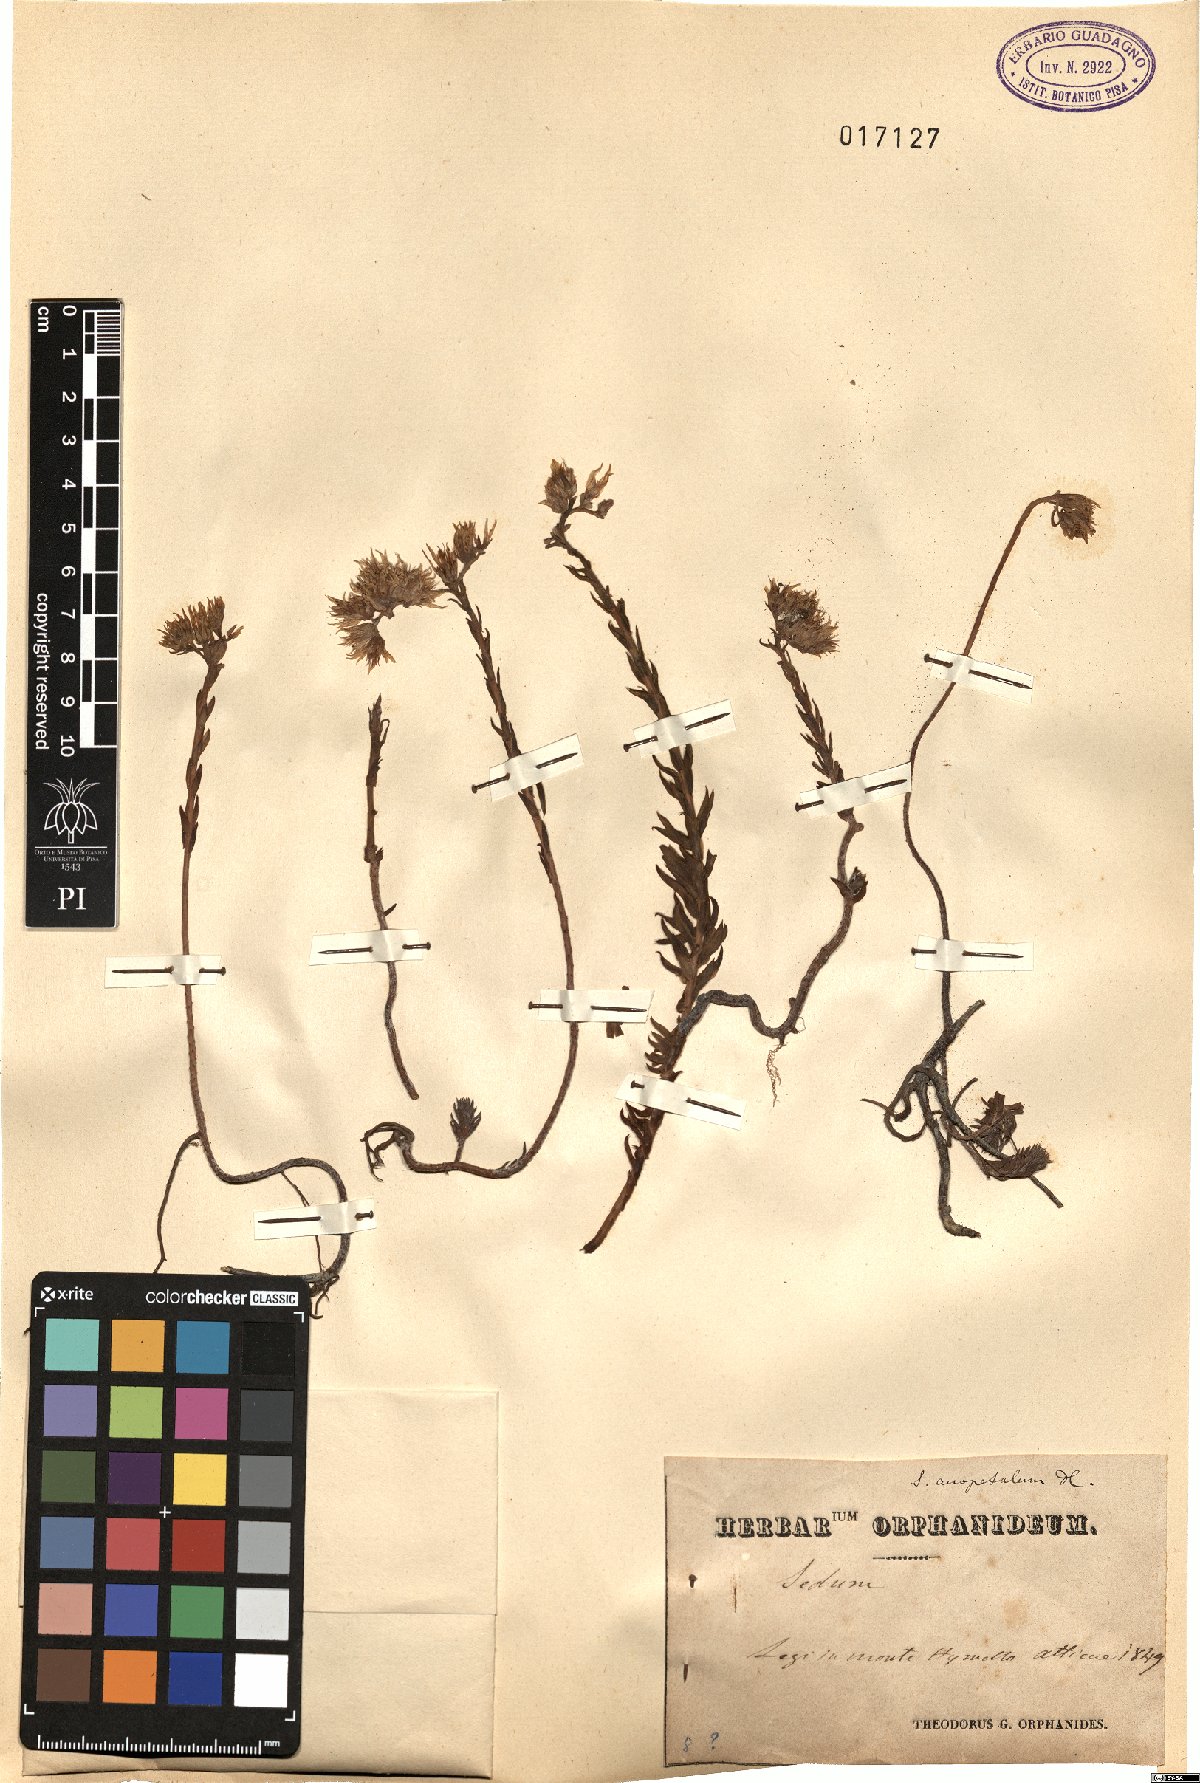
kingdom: Plantae
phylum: Tracheophyta
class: Magnoliopsida
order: Saxifragales
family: Crassulaceae
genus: Petrosedum
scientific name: Petrosedum
